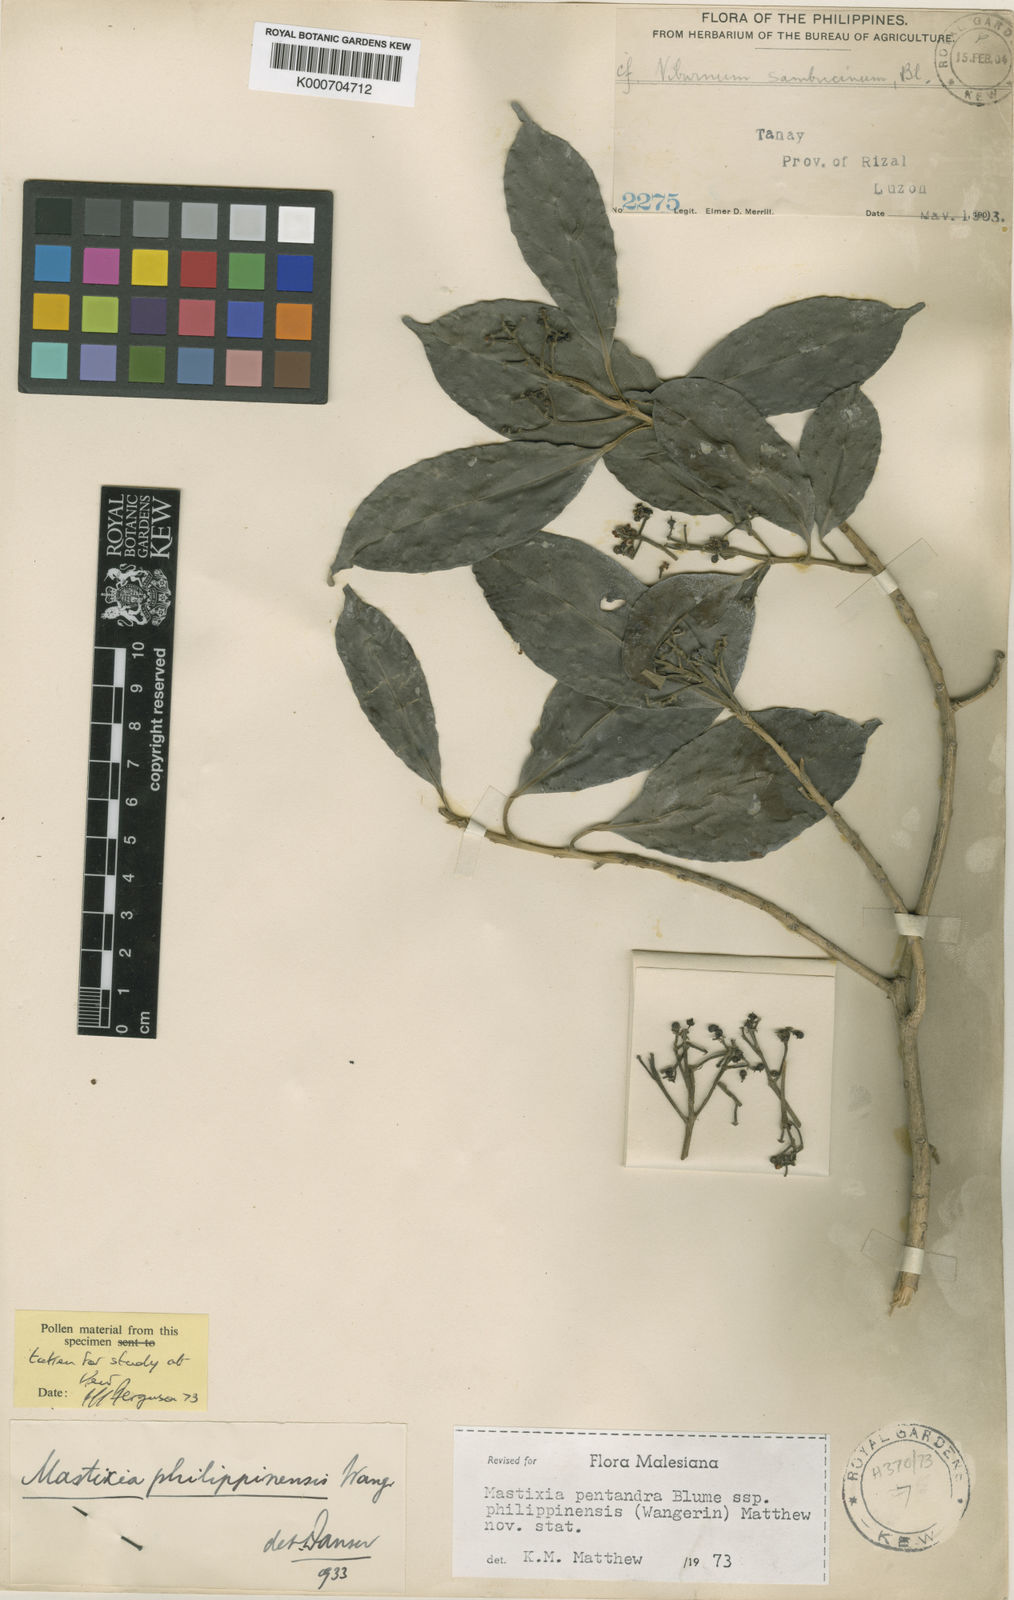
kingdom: Plantae
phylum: Tracheophyta
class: Magnoliopsida
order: Cornales
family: Nyssaceae
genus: Mastixia
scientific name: Mastixia pentandra
